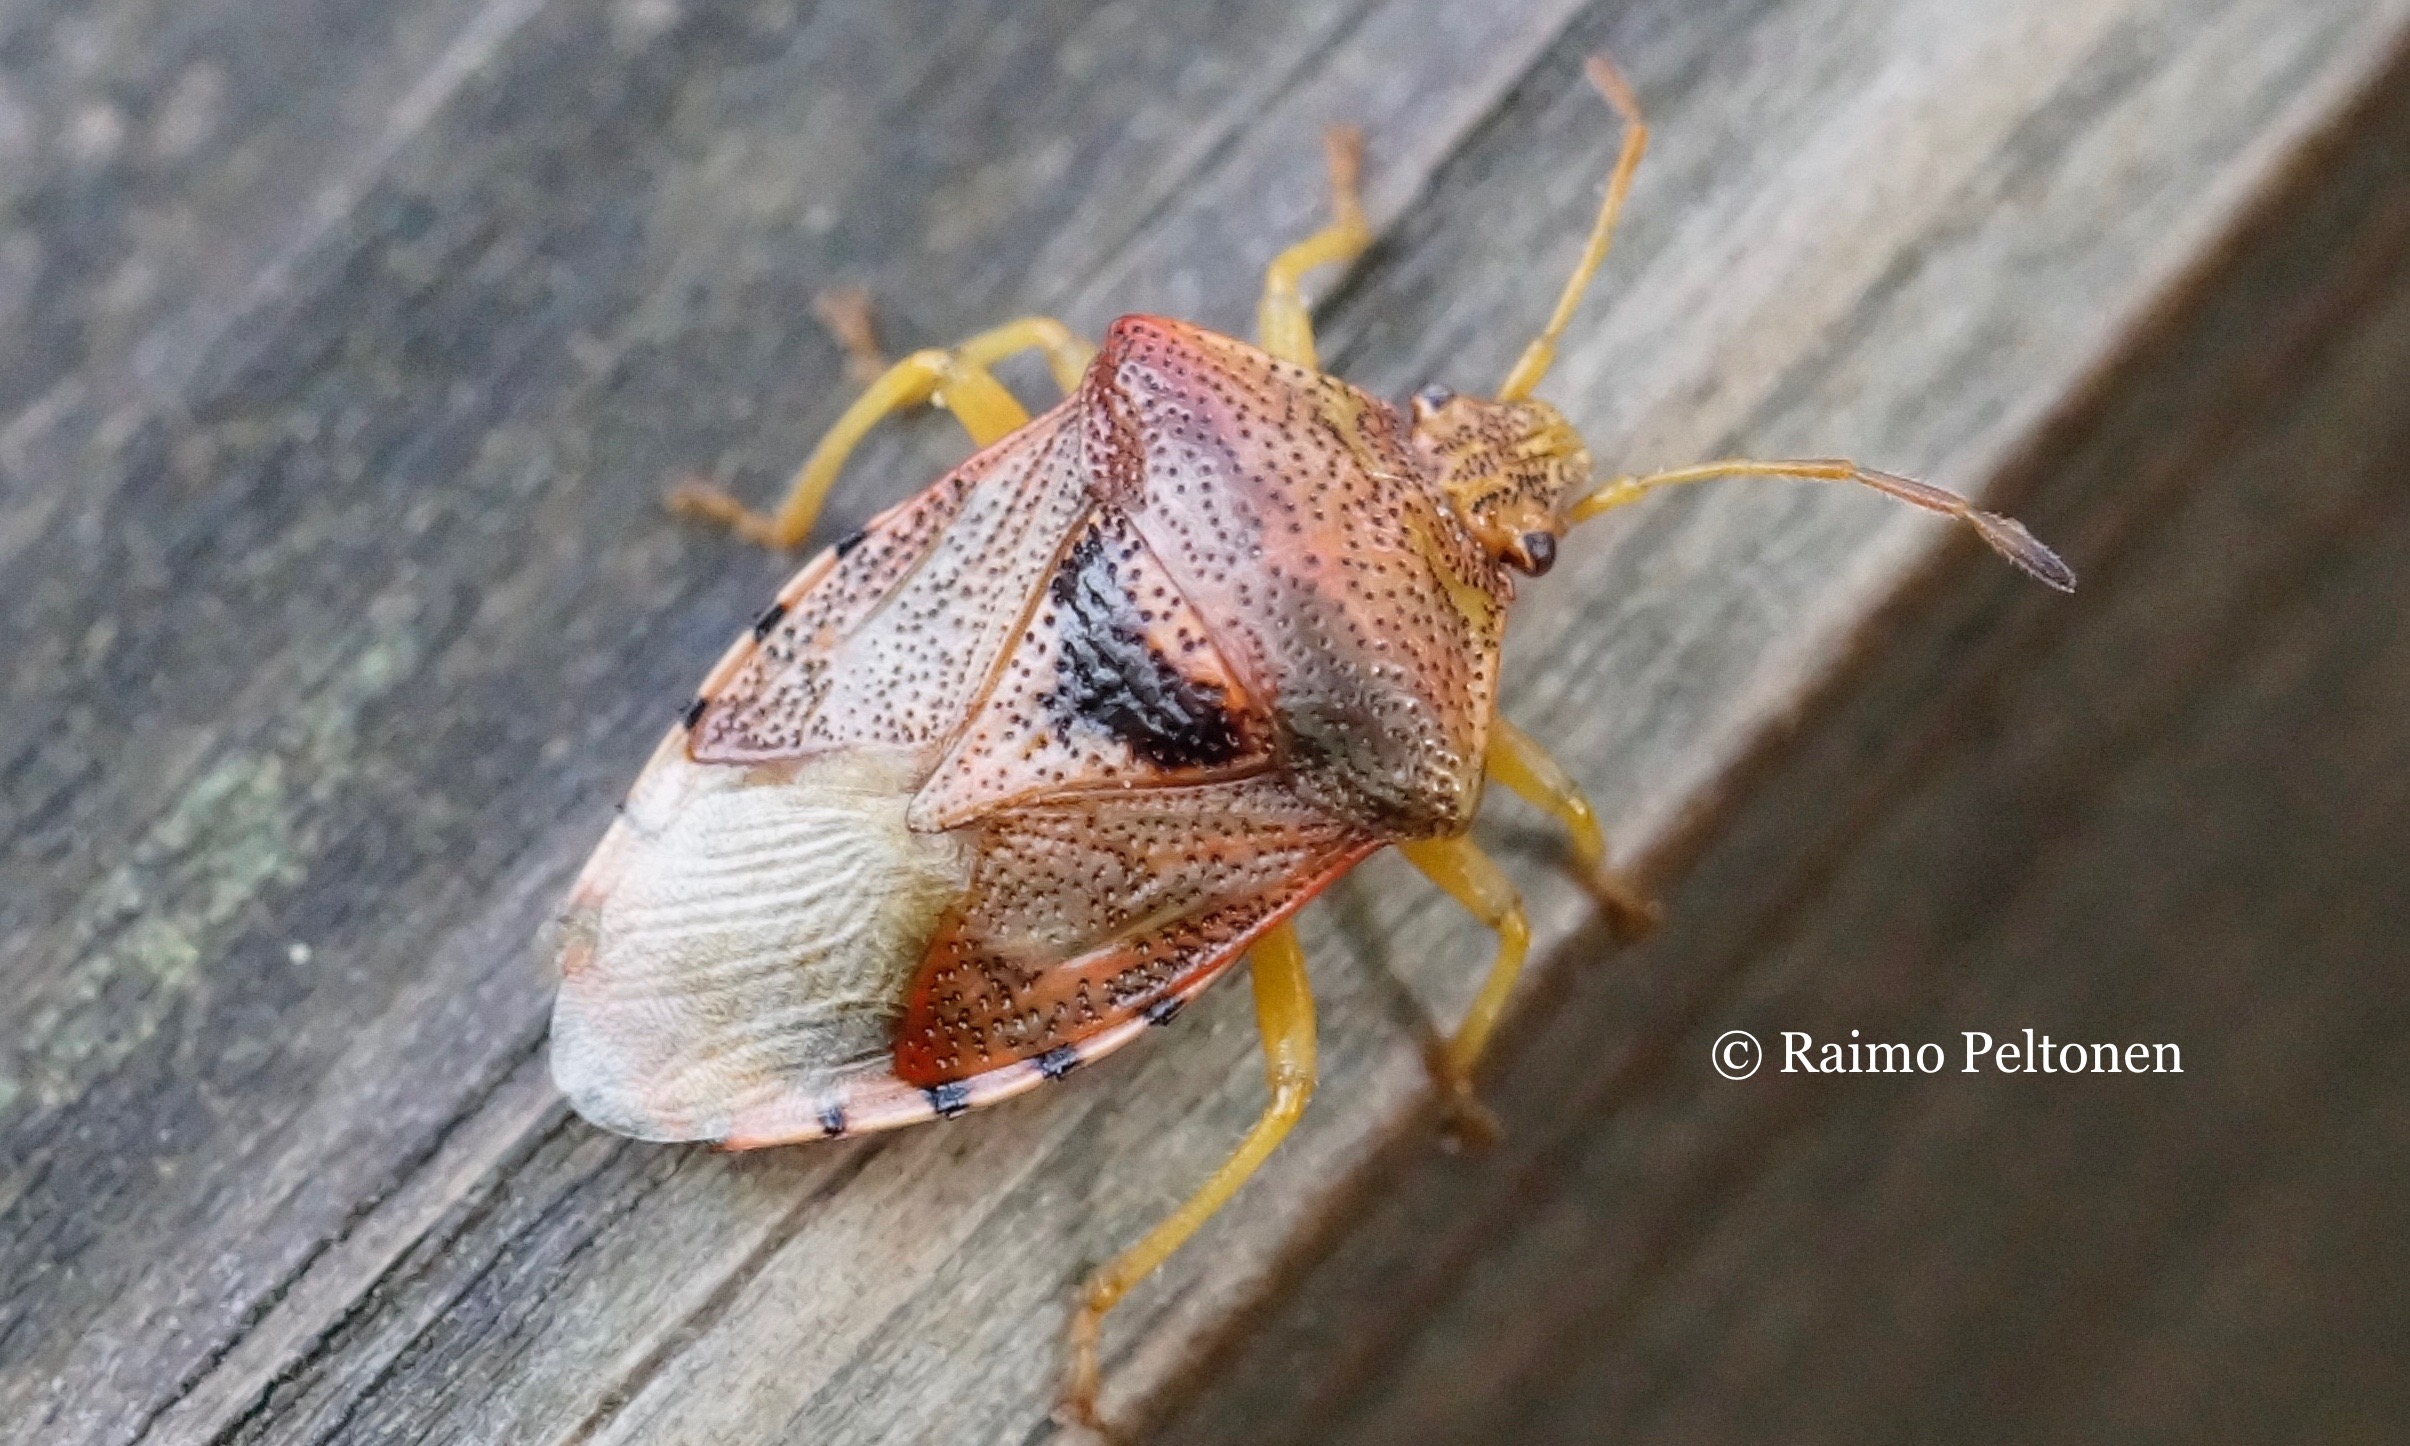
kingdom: Animalia
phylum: Arthropoda
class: Insecta
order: Hemiptera
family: Acanthosomatidae
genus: Elasmucha
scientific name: Elasmucha grisea
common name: Parent bug
